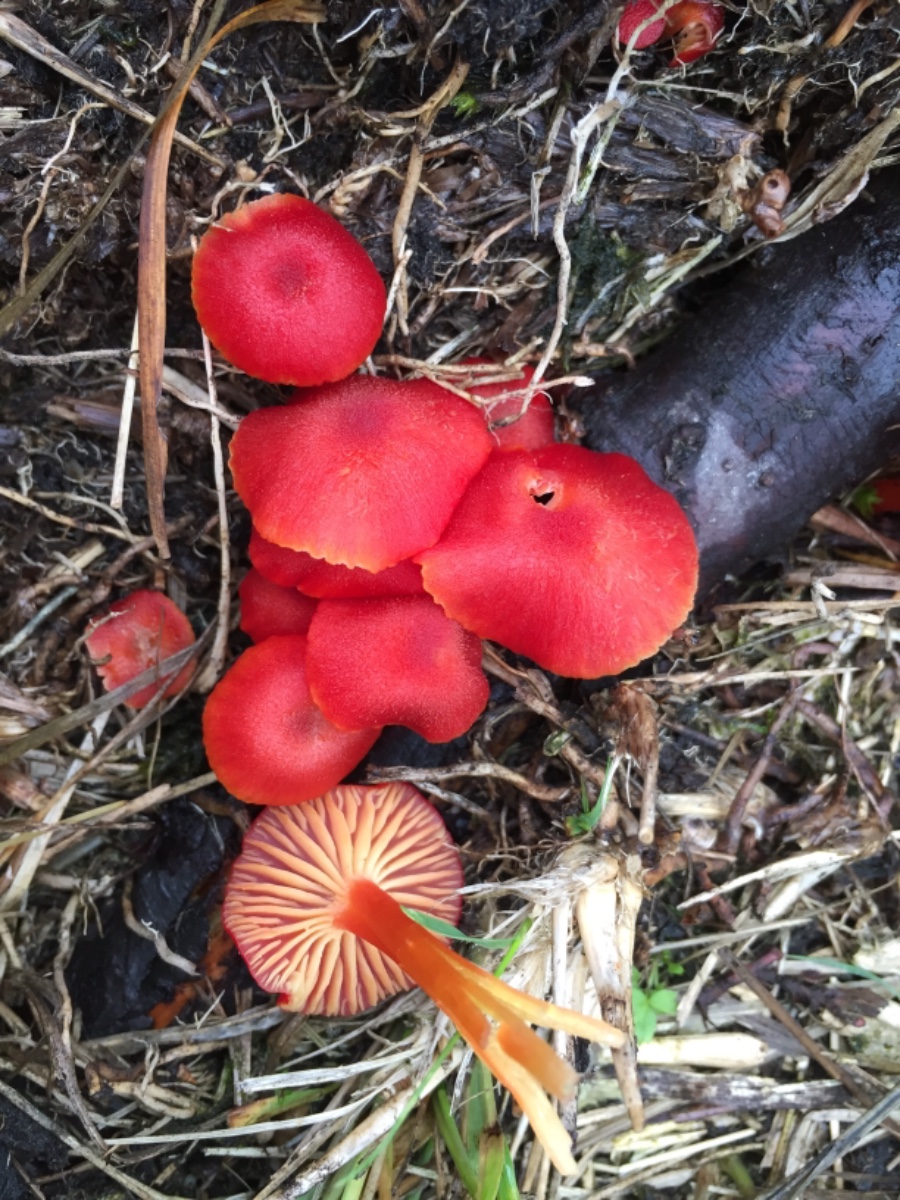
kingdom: Fungi
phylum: Basidiomycota
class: Agaricomycetes
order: Agaricales
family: Hygrophoraceae
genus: Hygrocybe
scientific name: Hygrocybe helobia
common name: hvidløgs-vokshat
